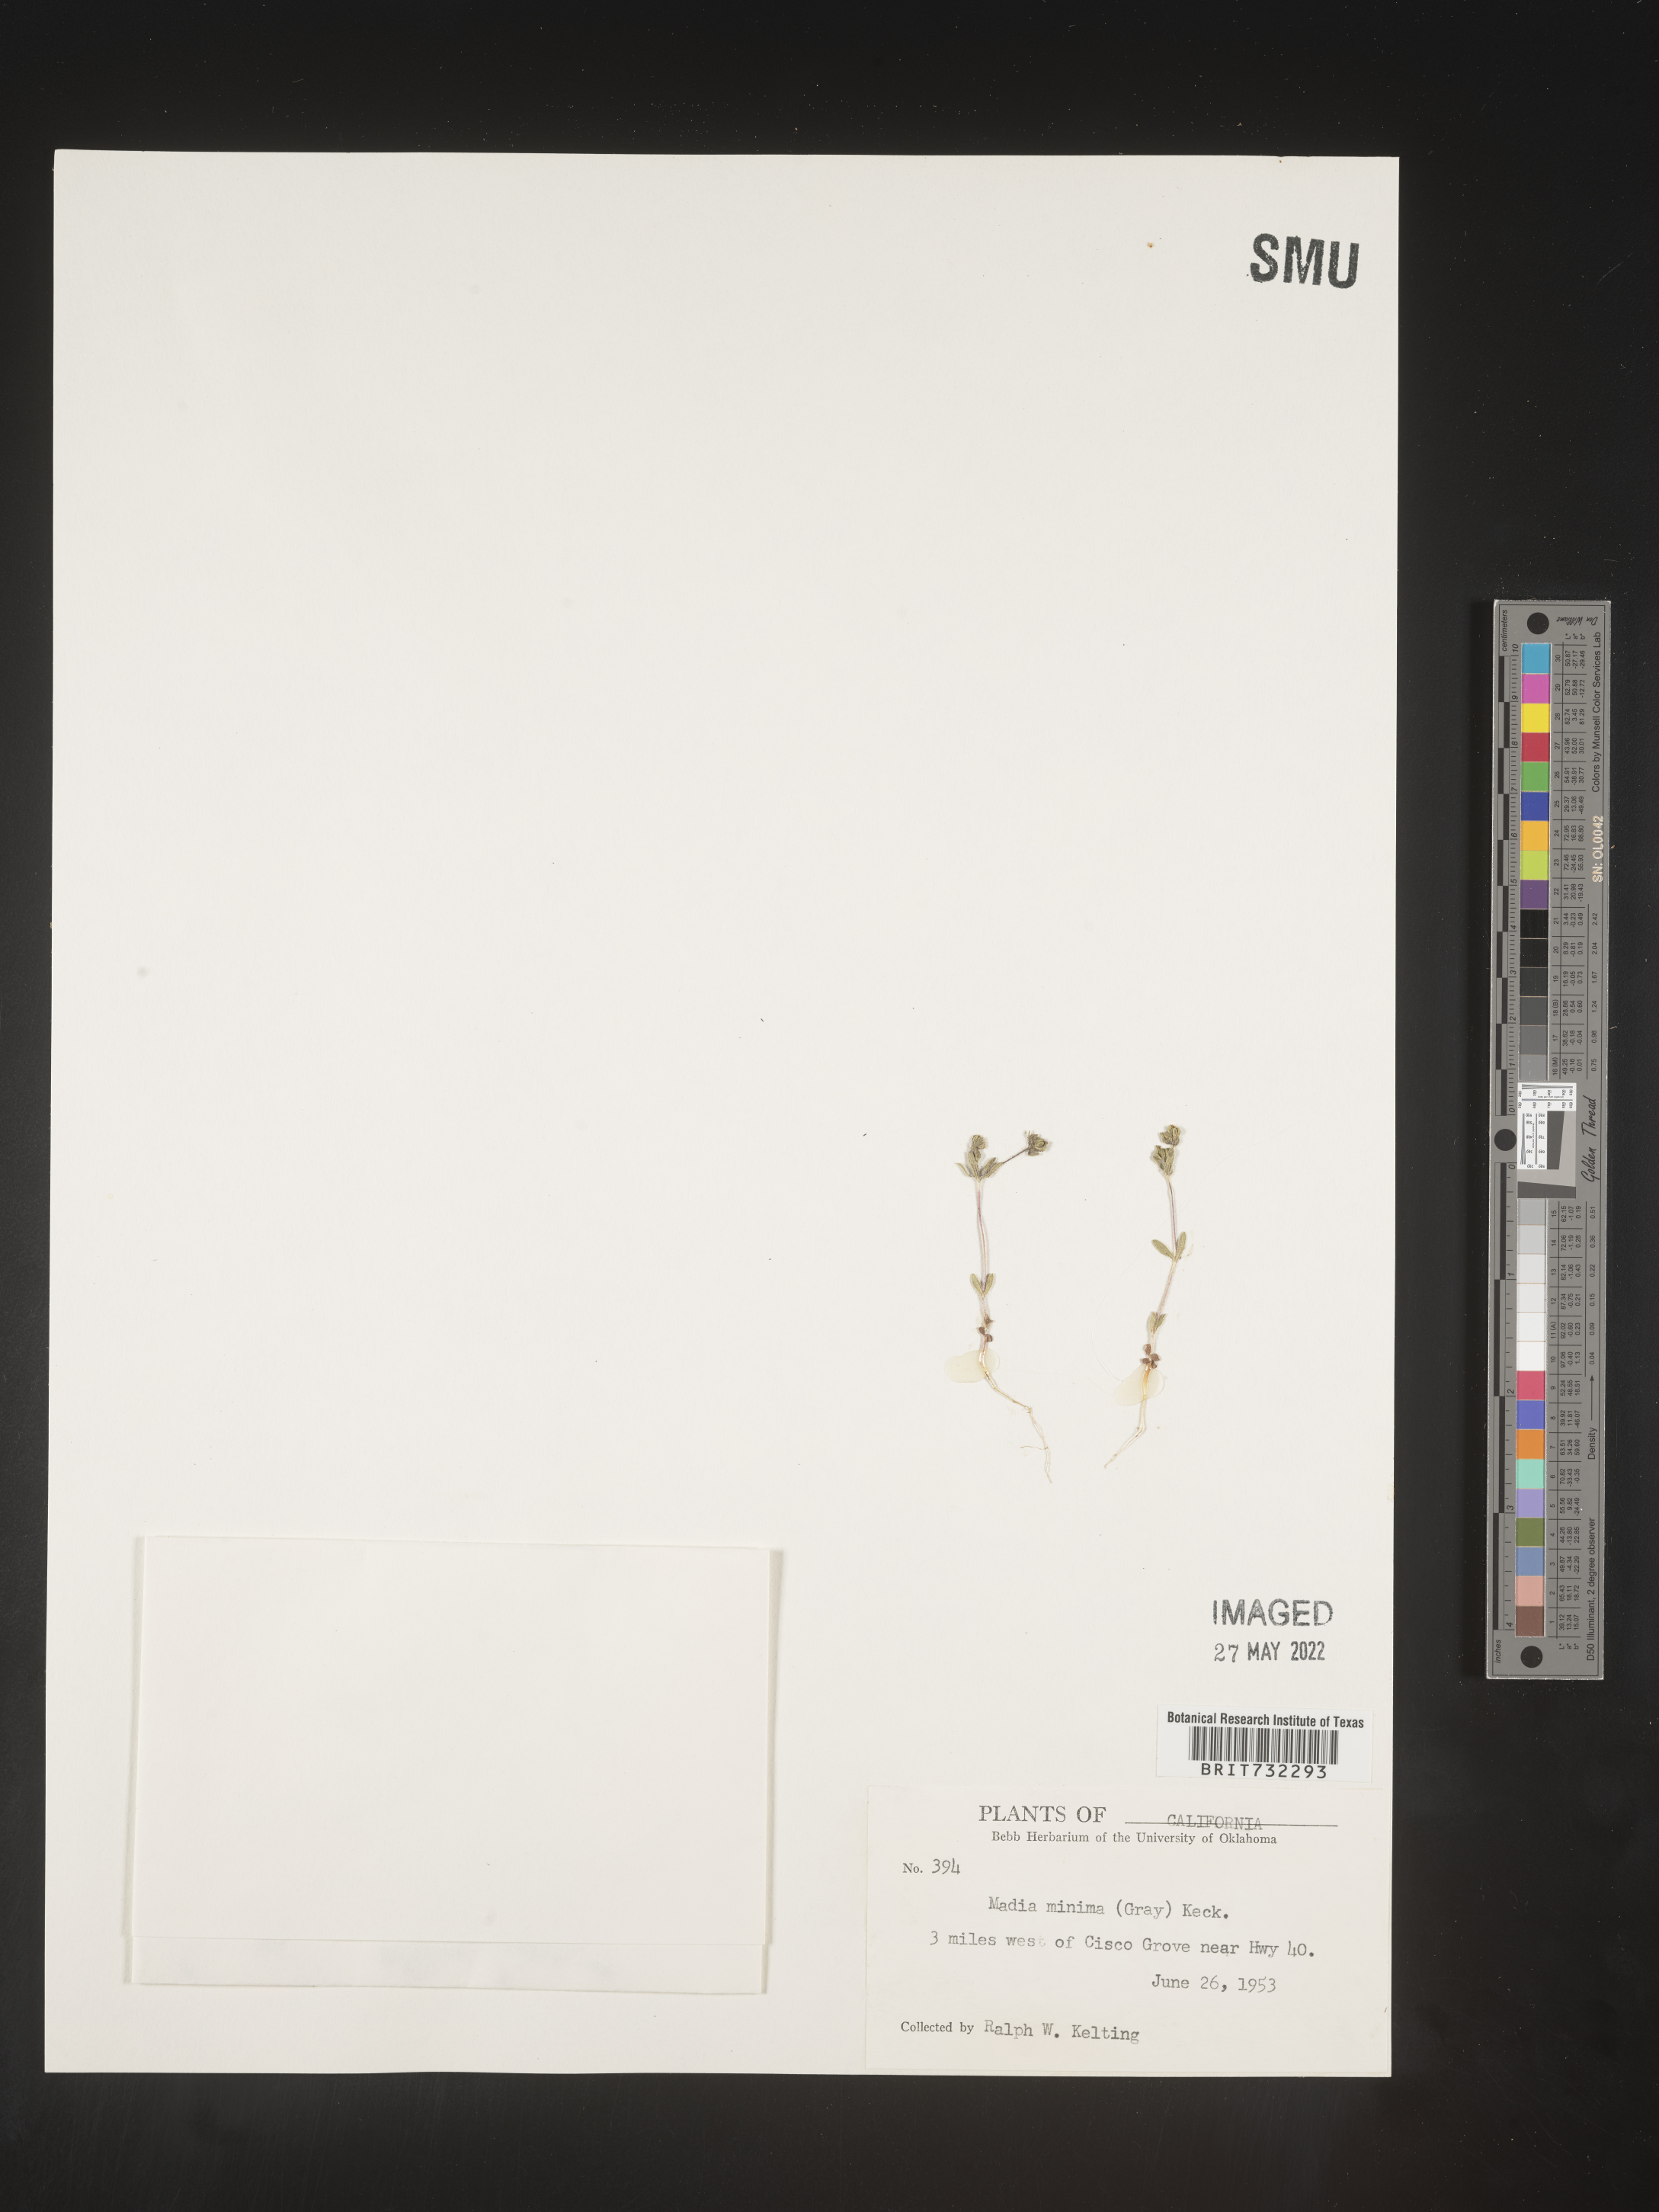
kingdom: Plantae
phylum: Tracheophyta
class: Magnoliopsida
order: Asterales
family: Asteraceae
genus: Madia
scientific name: Madia
